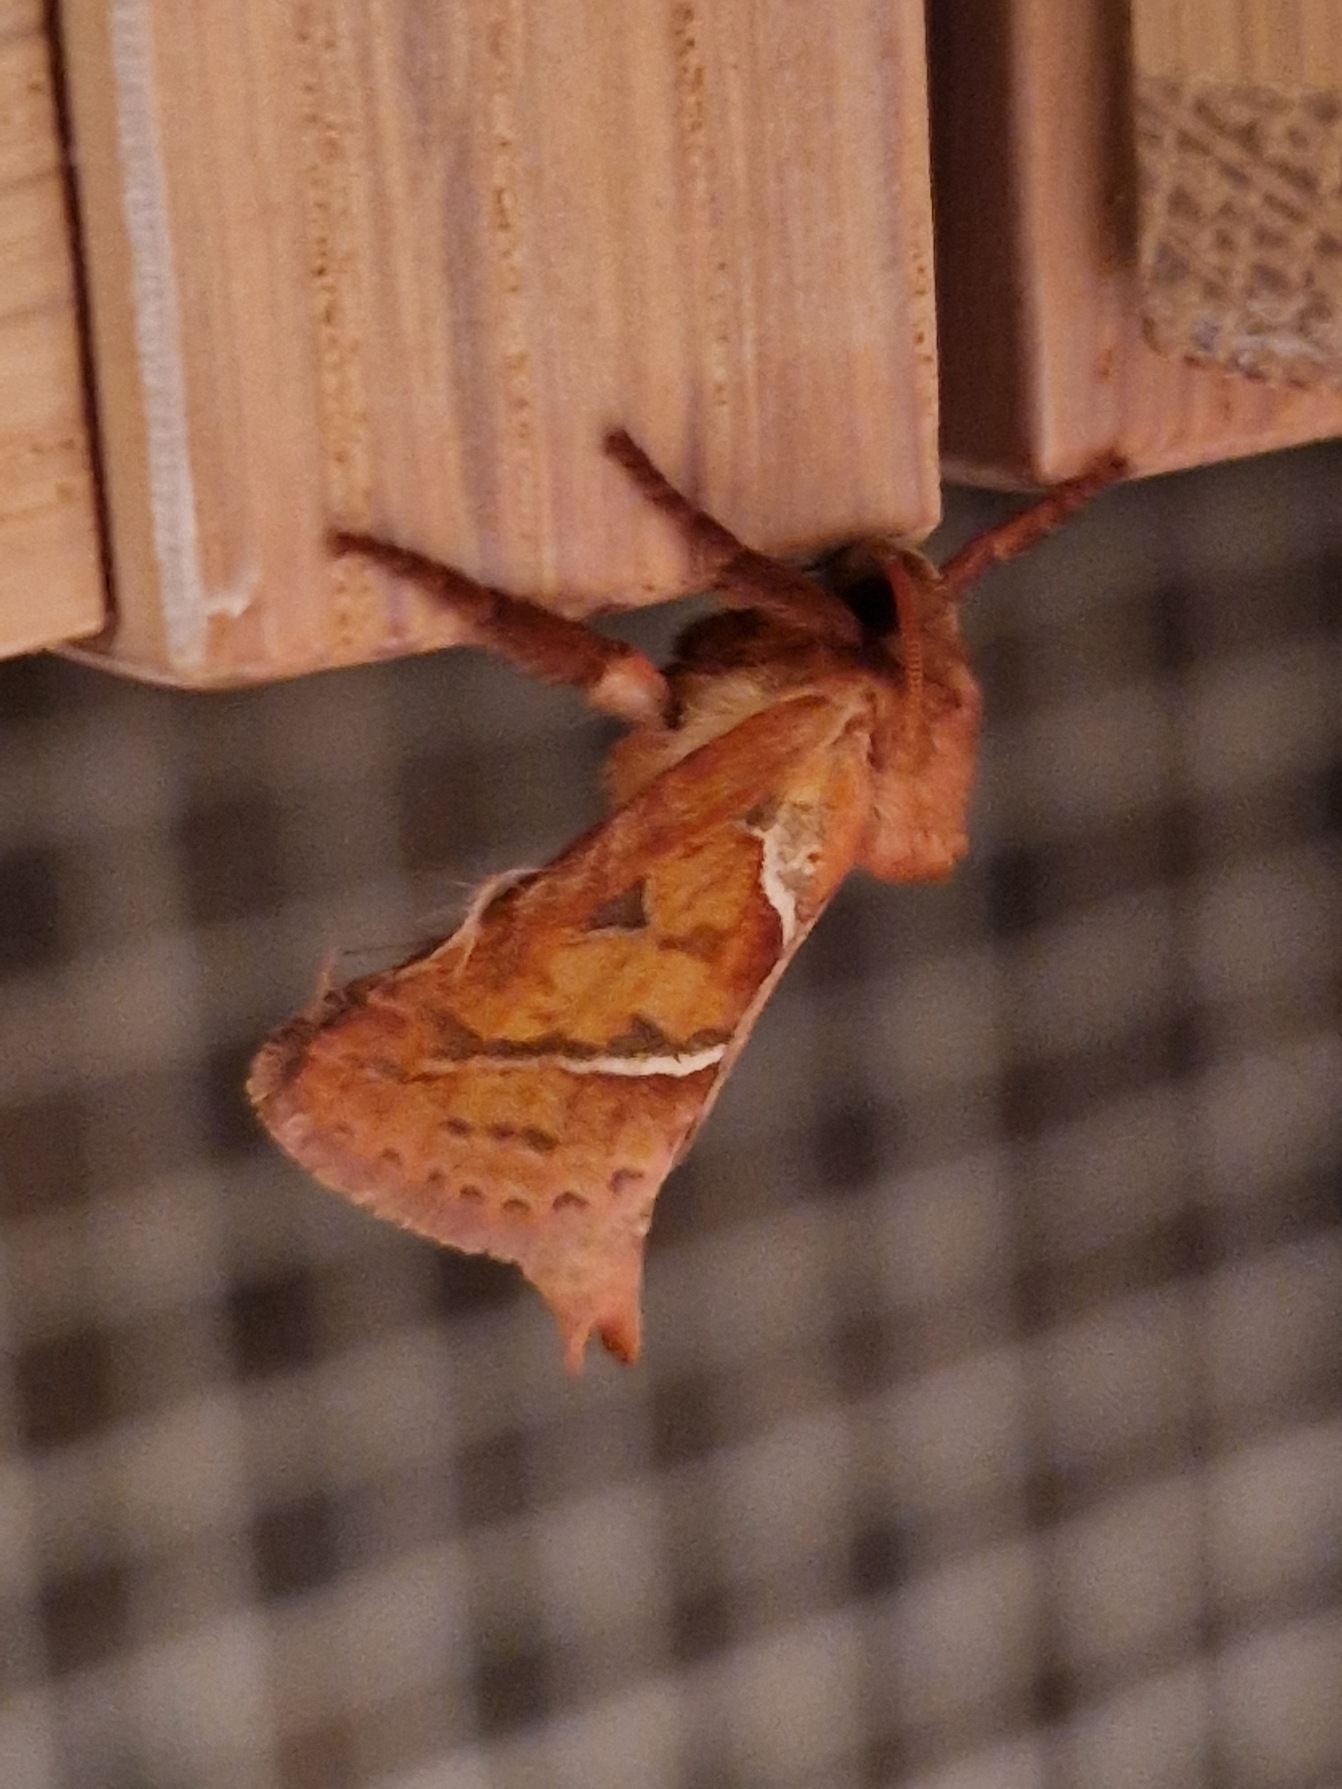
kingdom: Animalia
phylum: Arthropoda
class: Insecta
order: Lepidoptera
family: Hepialidae
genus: Triodia
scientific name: Triodia sylvina
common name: Skræpperodæder
